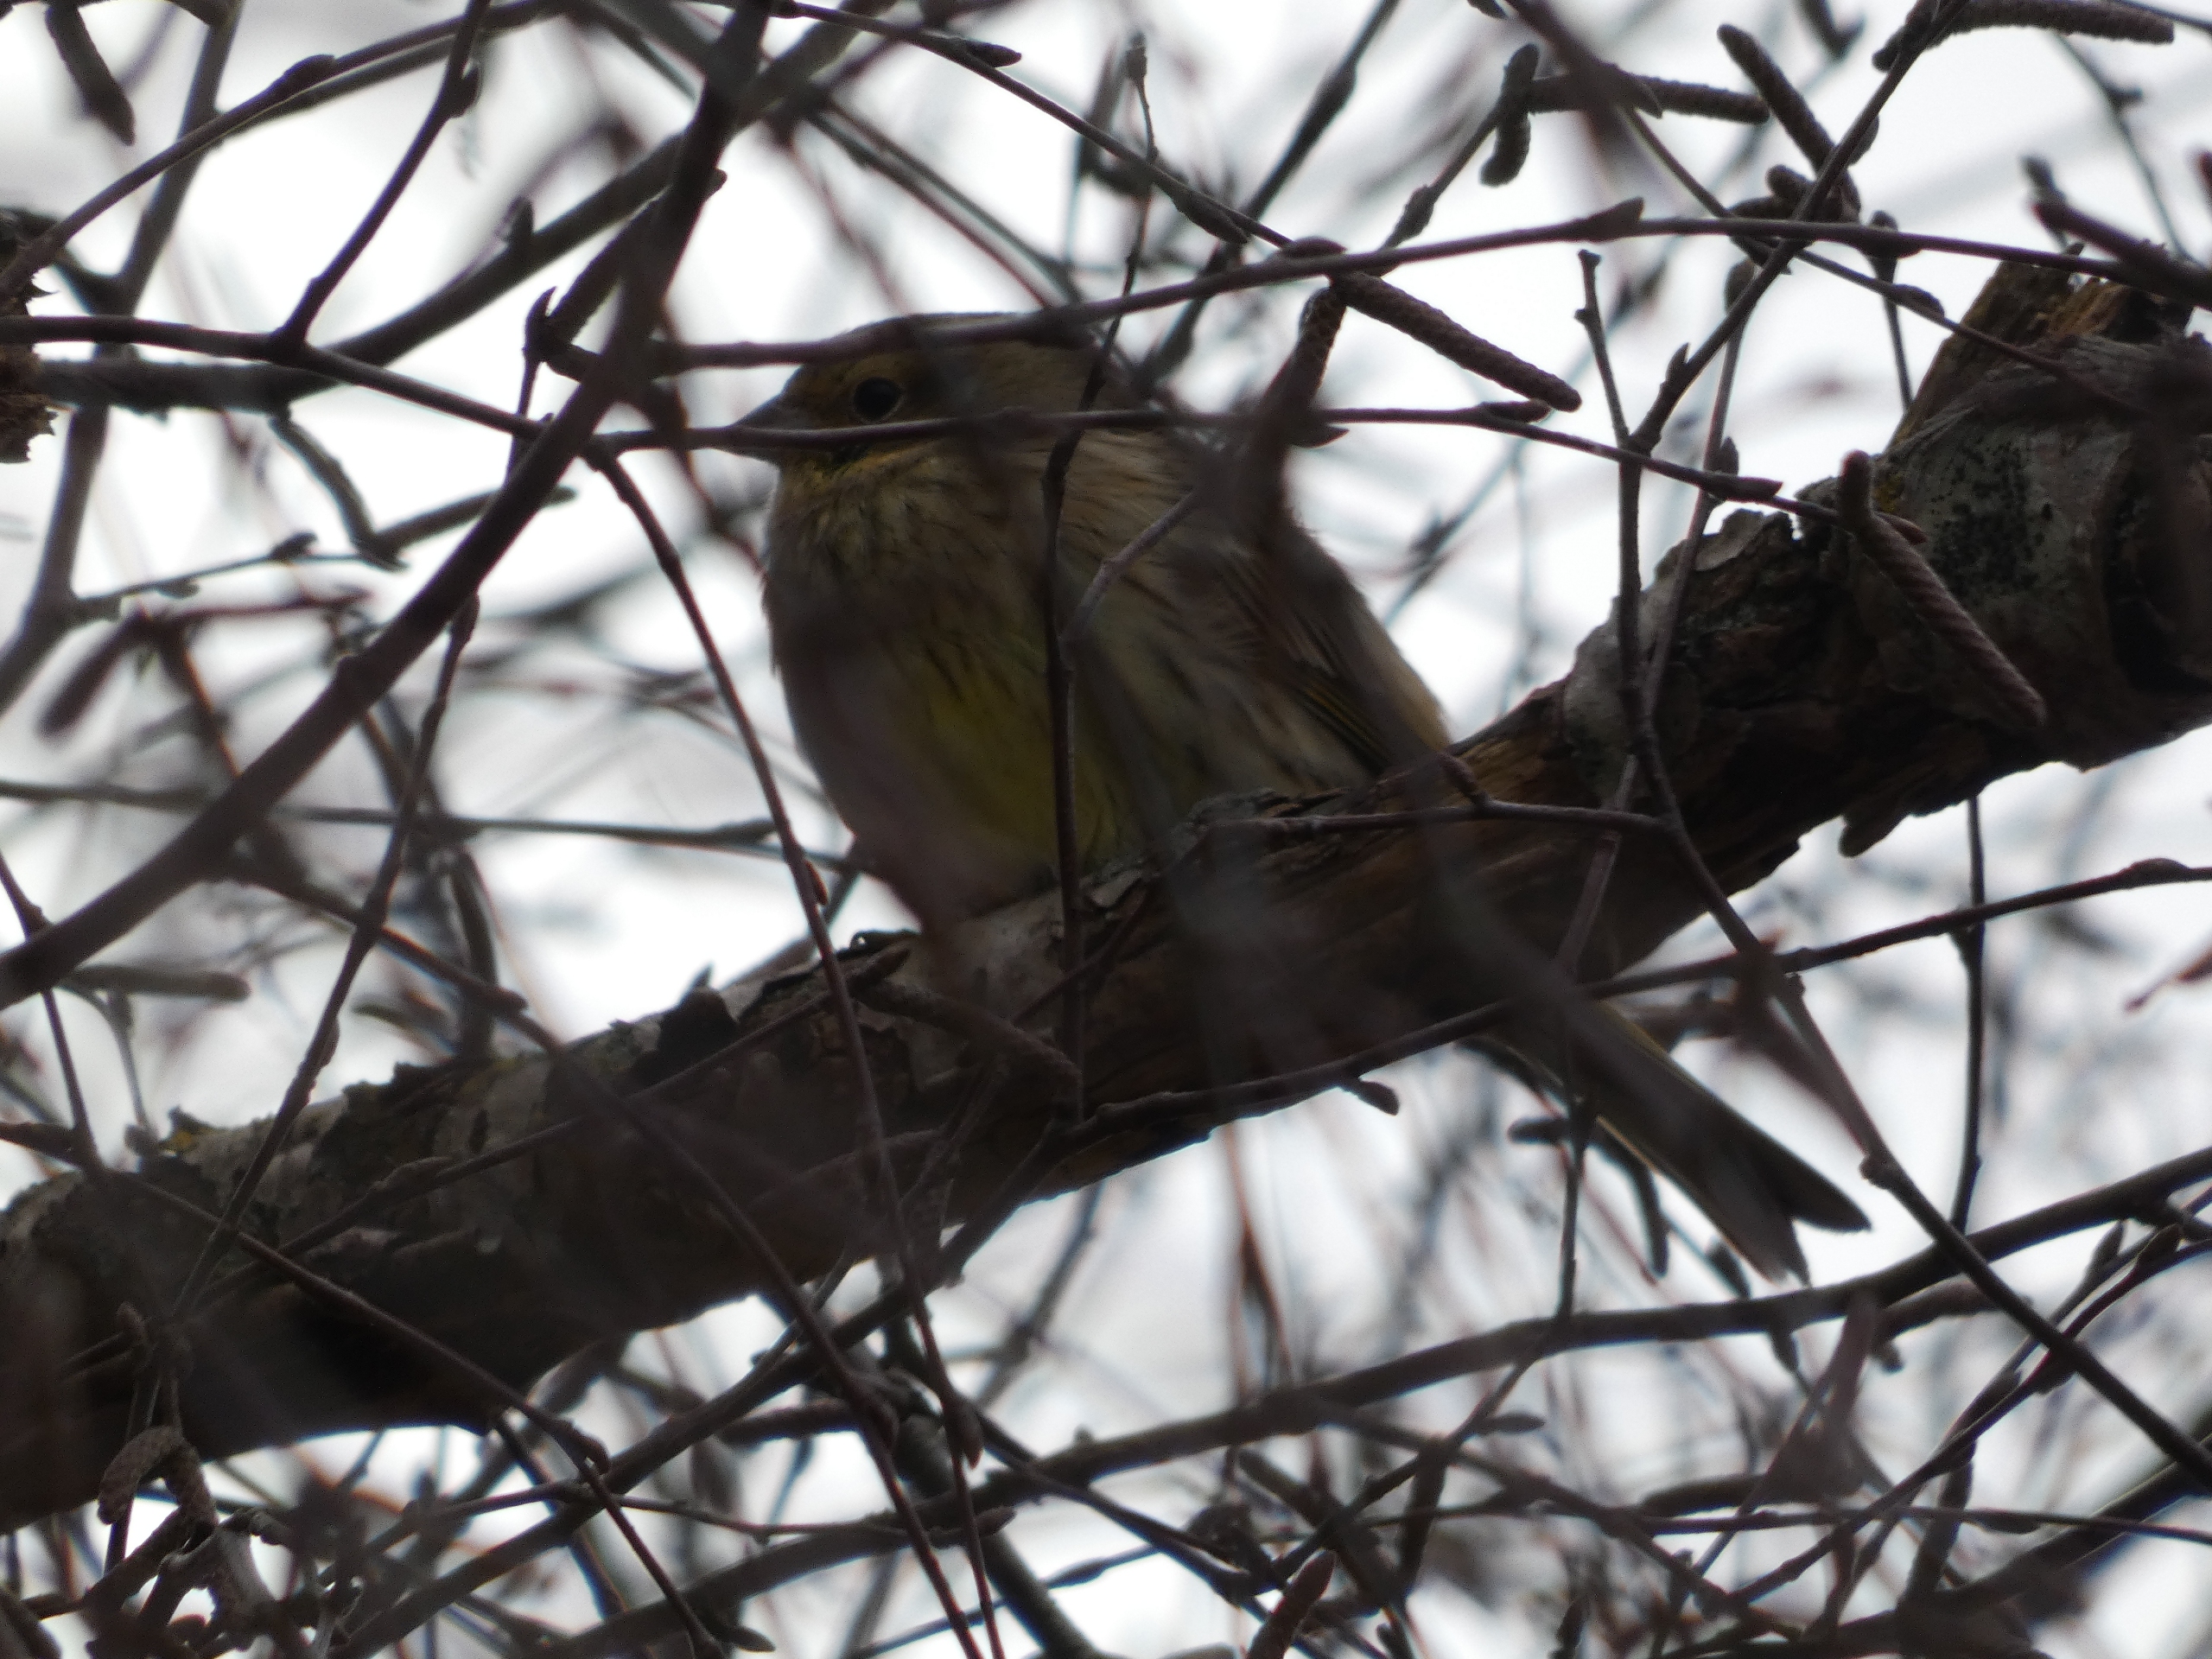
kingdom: Animalia
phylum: Chordata
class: Aves
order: Passeriformes
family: Emberizidae
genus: Emberiza
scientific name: Emberiza citrinella
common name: Gulspurv
